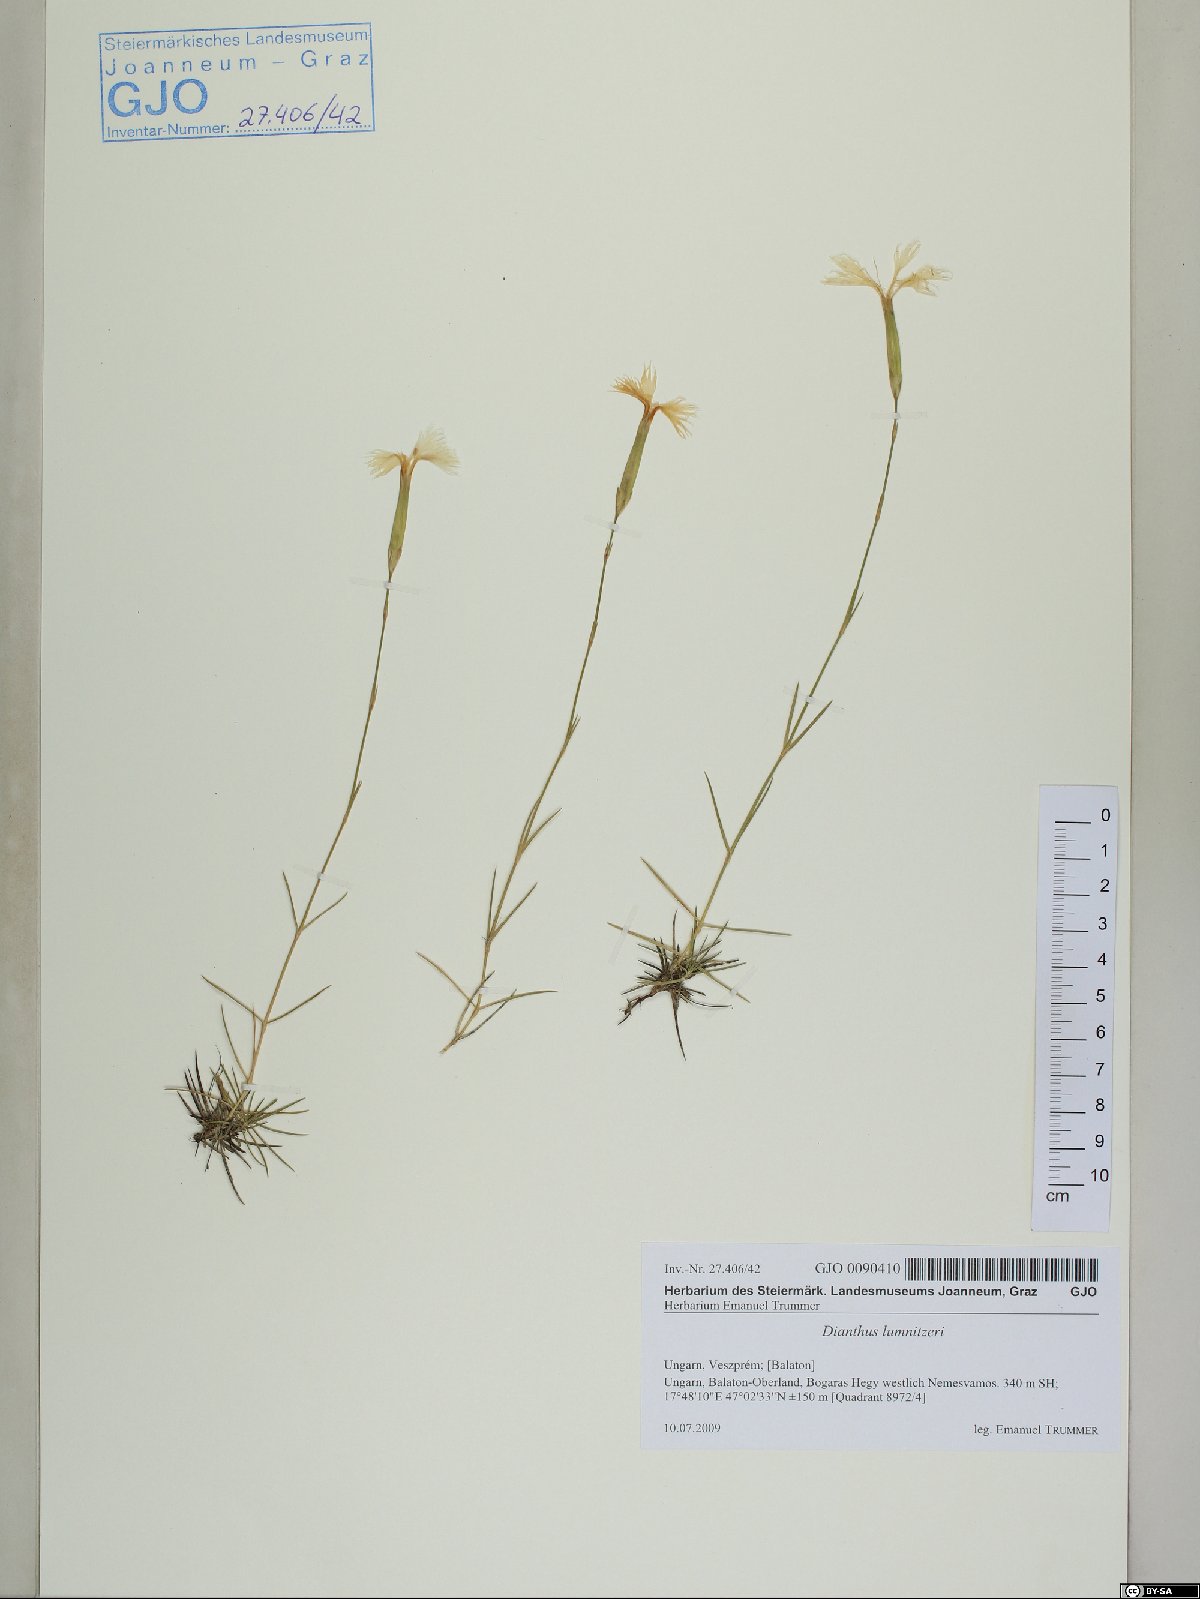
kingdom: Plantae
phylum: Tracheophyta
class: Magnoliopsida
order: Caryophyllales
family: Caryophyllaceae
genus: Dianthus
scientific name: Dianthus praecox
